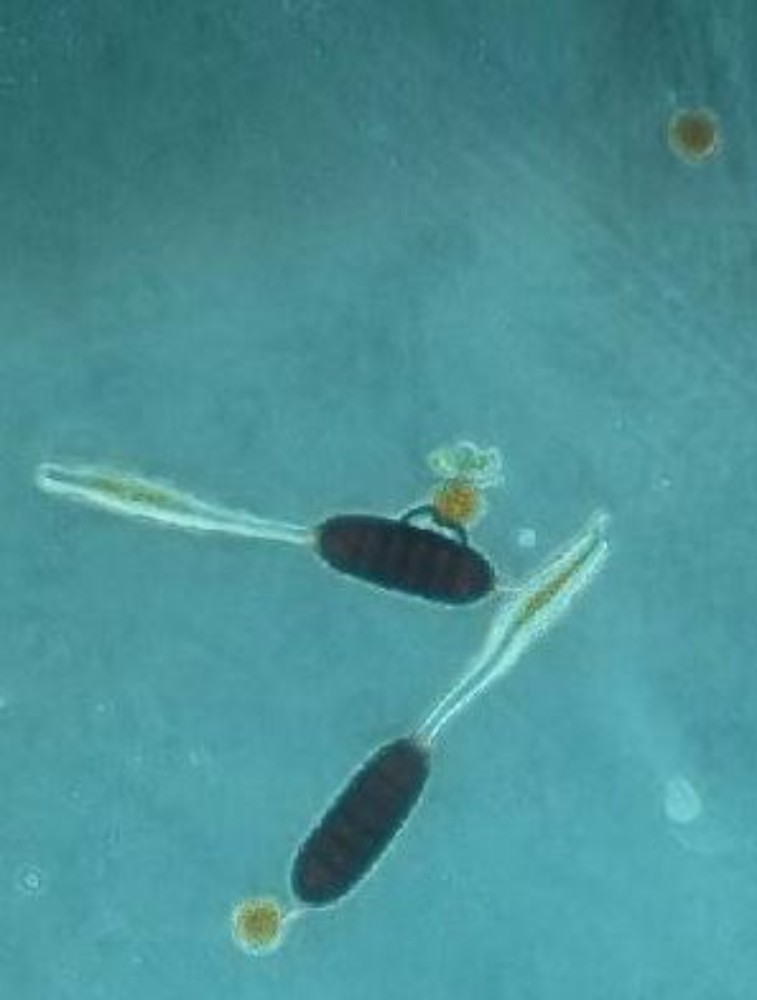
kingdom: Fungi
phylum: Basidiomycota
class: Pucciniomycetes
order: Pucciniales
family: Phragmidiaceae
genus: Phragmidium
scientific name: Phragmidium tuberculatum
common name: Rose rust
